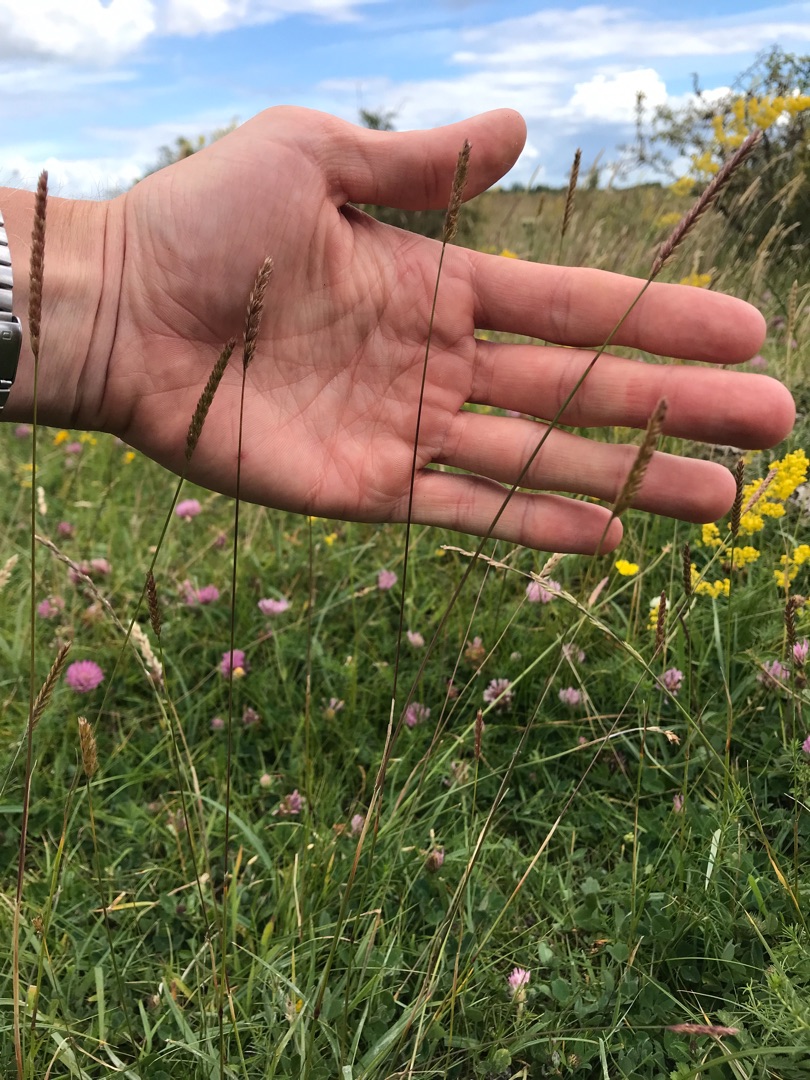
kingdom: Plantae
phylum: Tracheophyta
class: Liliopsida
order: Poales
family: Poaceae
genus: Cynosurus
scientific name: Cynosurus cristatus
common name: Kamgræs
